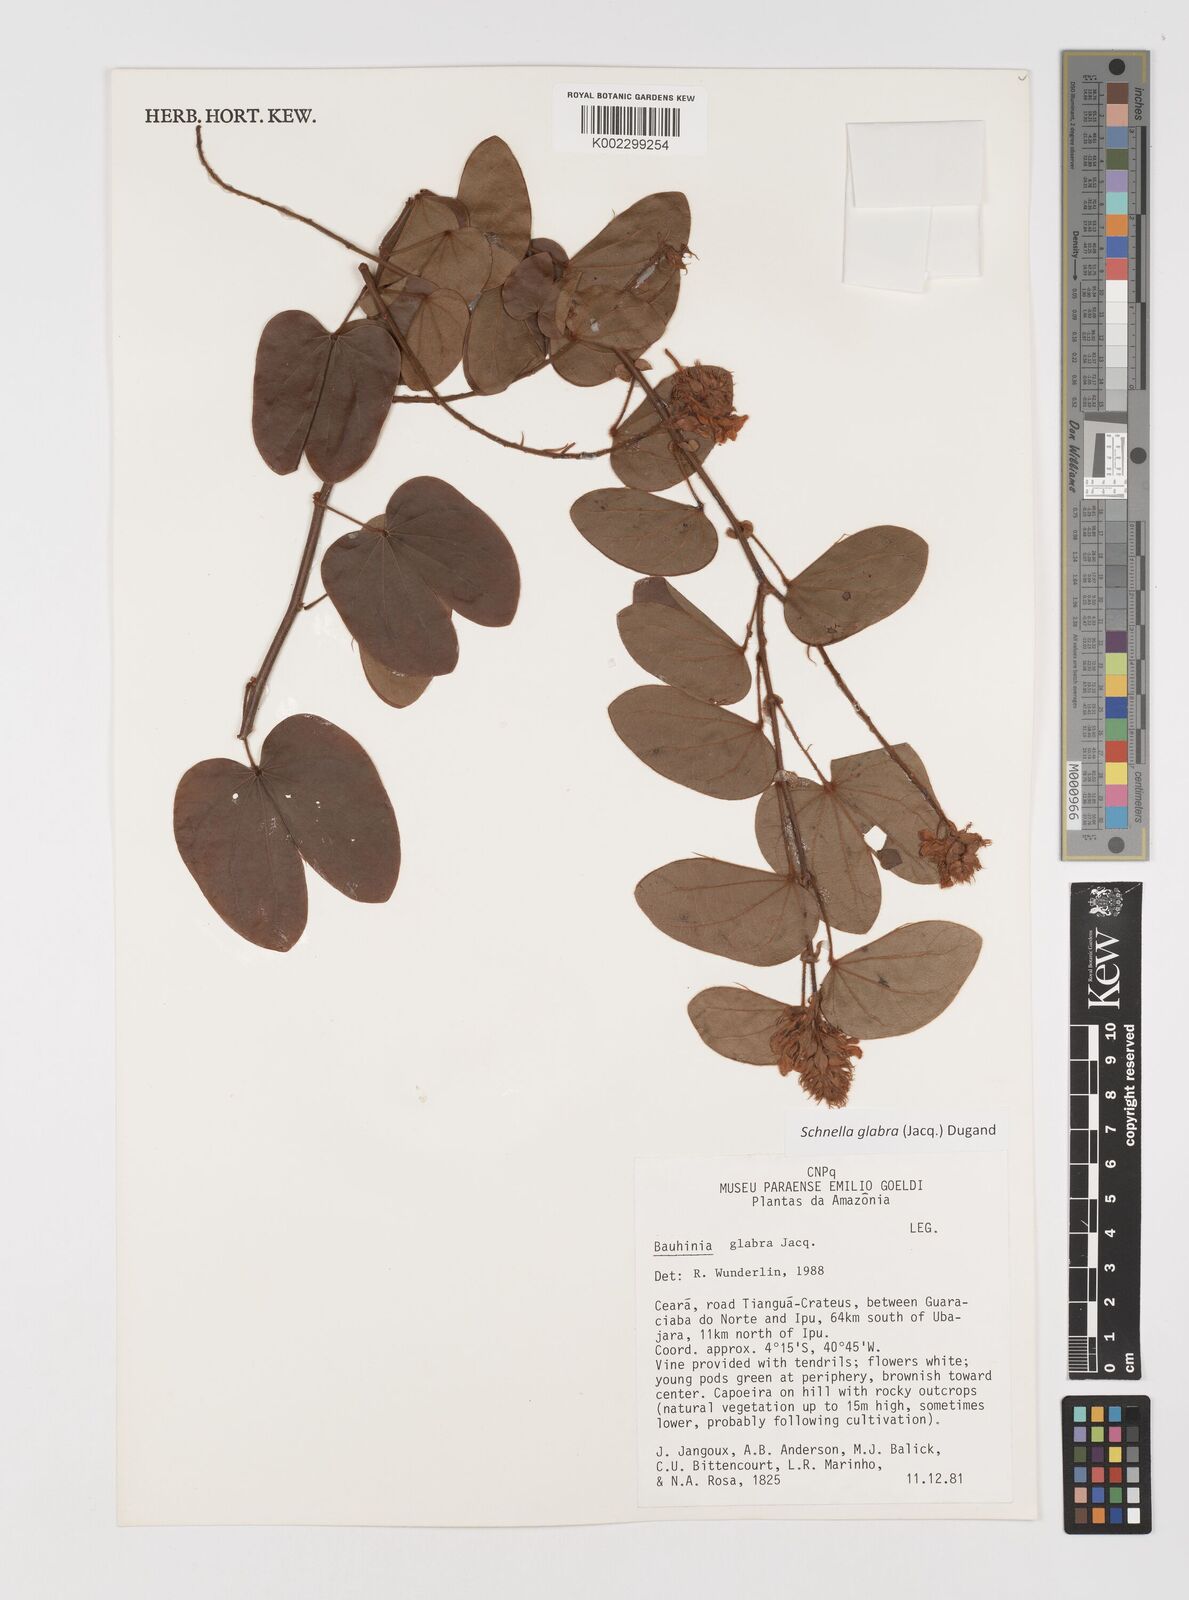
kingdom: Plantae
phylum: Tracheophyta
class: Magnoliopsida
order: Fabales
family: Fabaceae
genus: Schnella
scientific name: Schnella glabra
